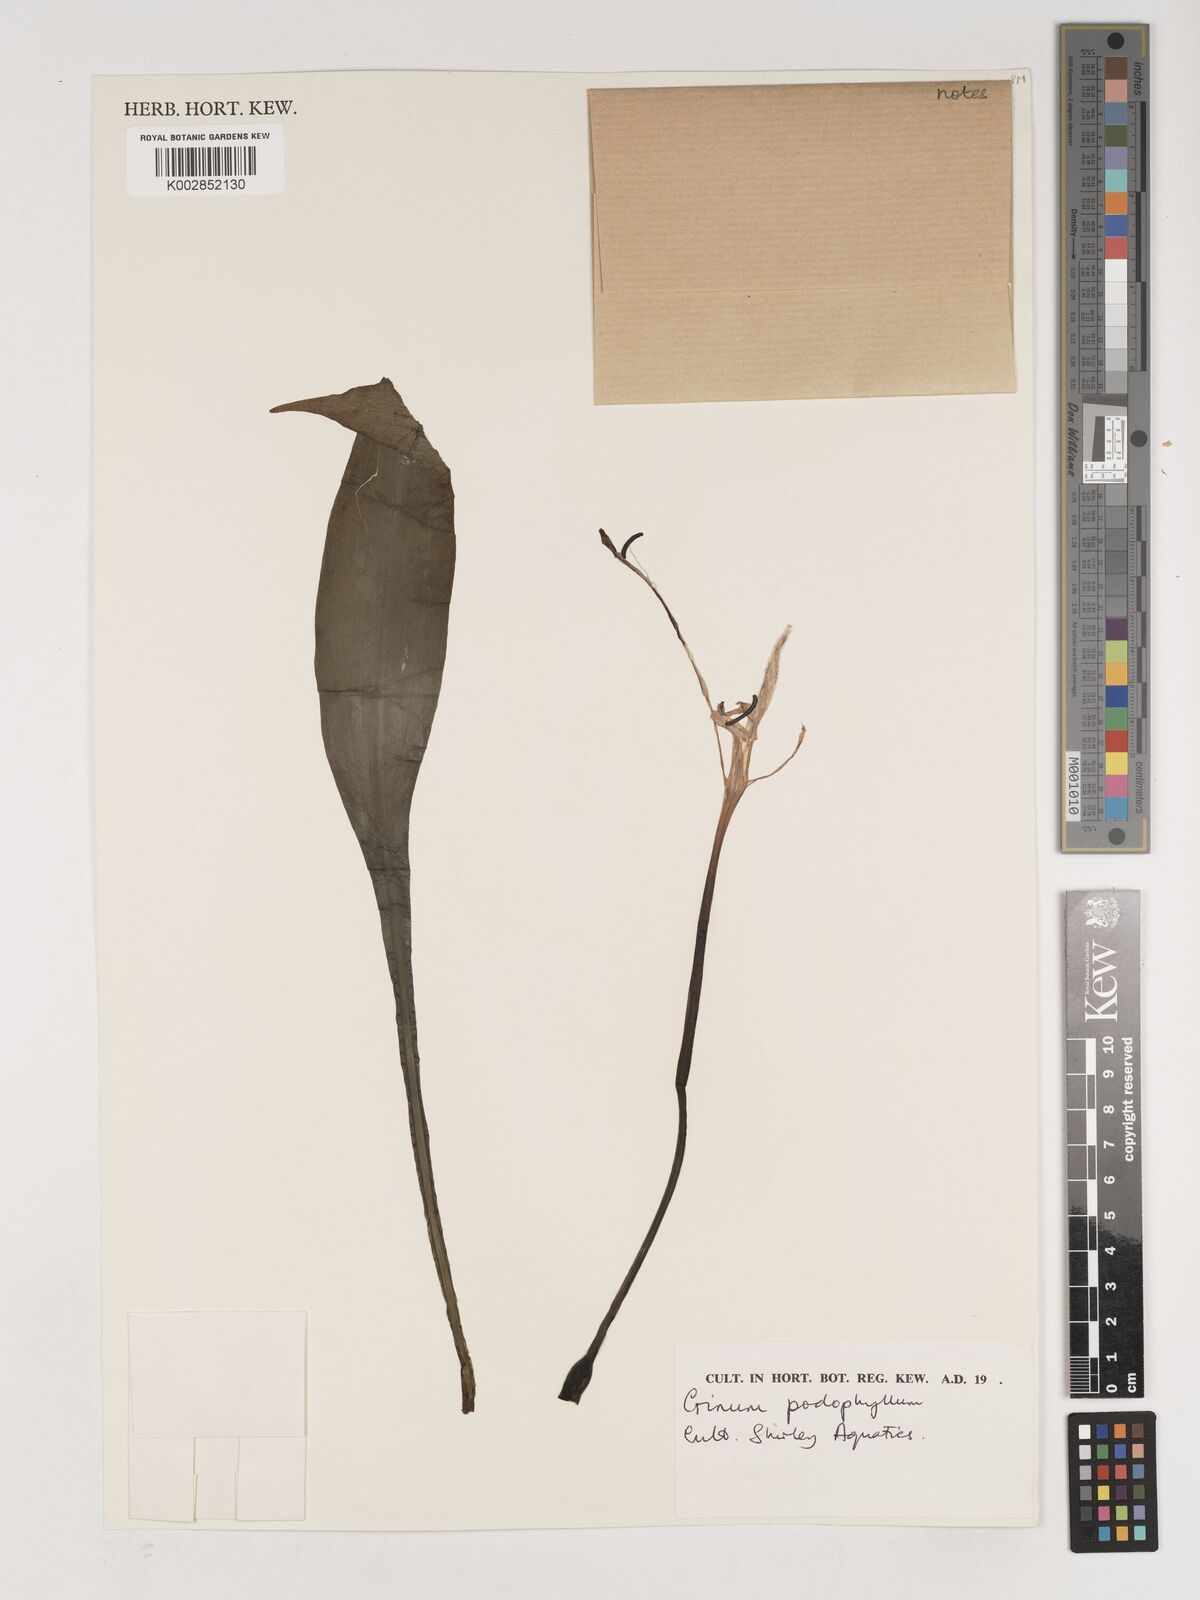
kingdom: Plantae
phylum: Tracheophyta
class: Liliopsida
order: Asparagales
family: Amaryllidaceae
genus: Crinum
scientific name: Crinum jagus
